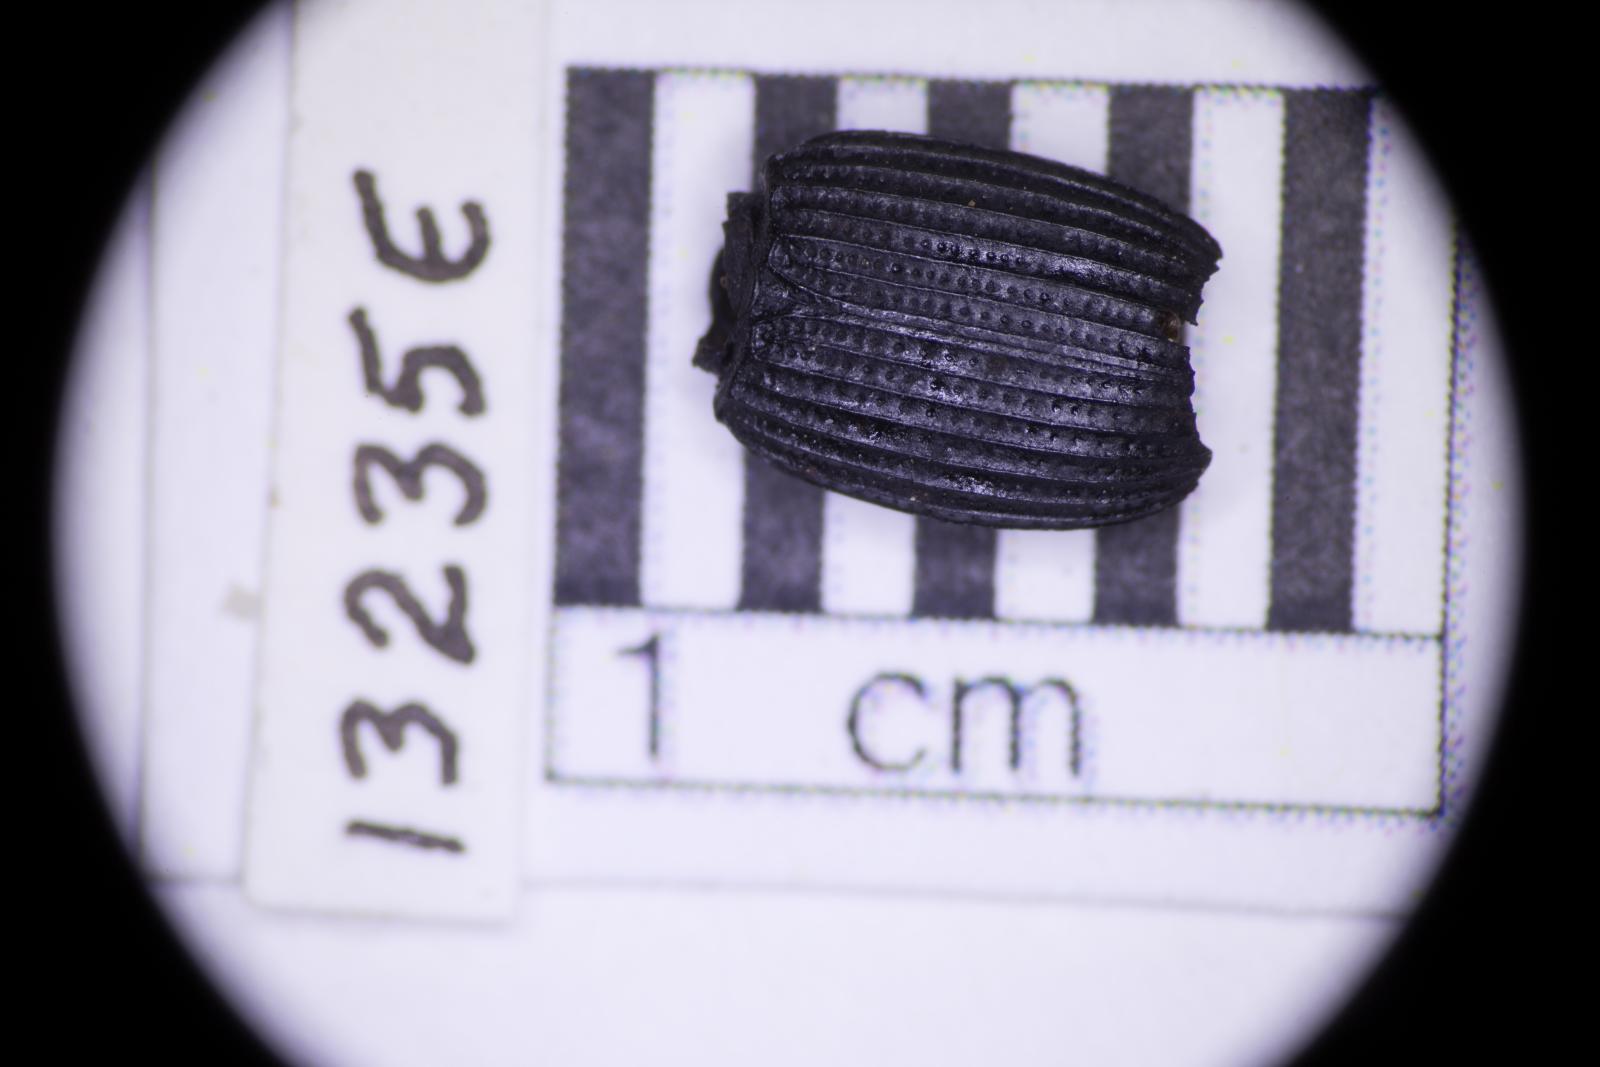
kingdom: Animalia
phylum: Arthropoda
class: Insecta
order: Coleoptera
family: Tenebrionidae
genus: Apsena
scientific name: Apsena laticornis
